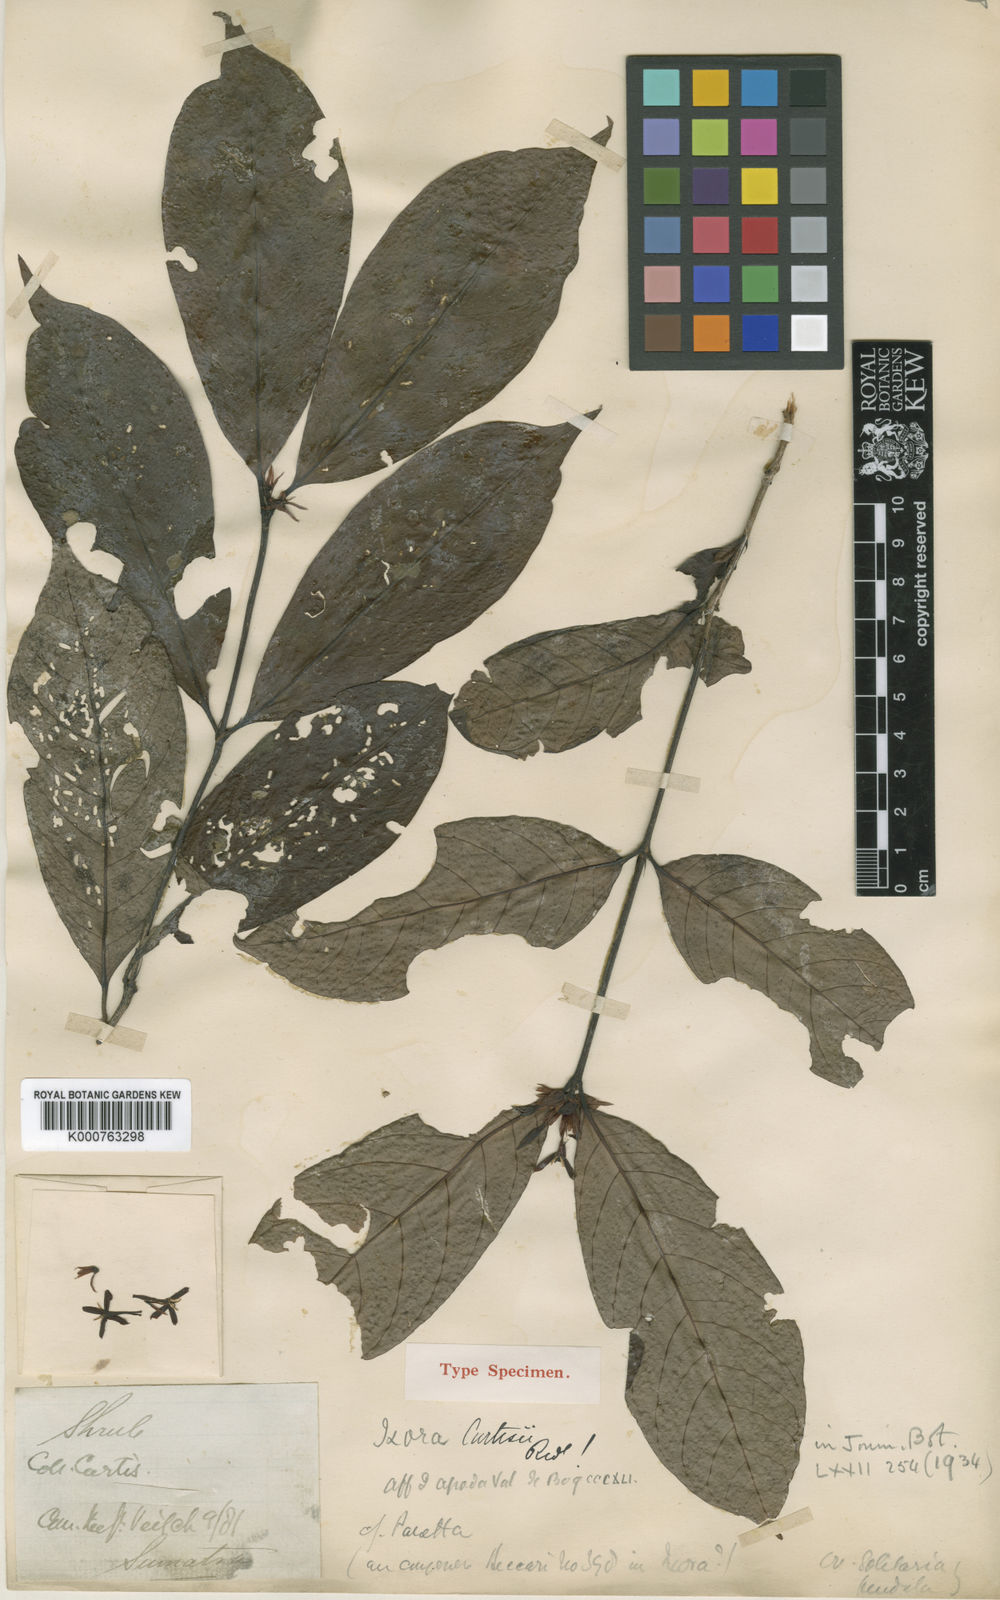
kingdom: Plantae
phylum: Tracheophyta
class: Magnoliopsida
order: Gentianales
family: Rubiaceae
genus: Ixora
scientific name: Ixora curtisii
